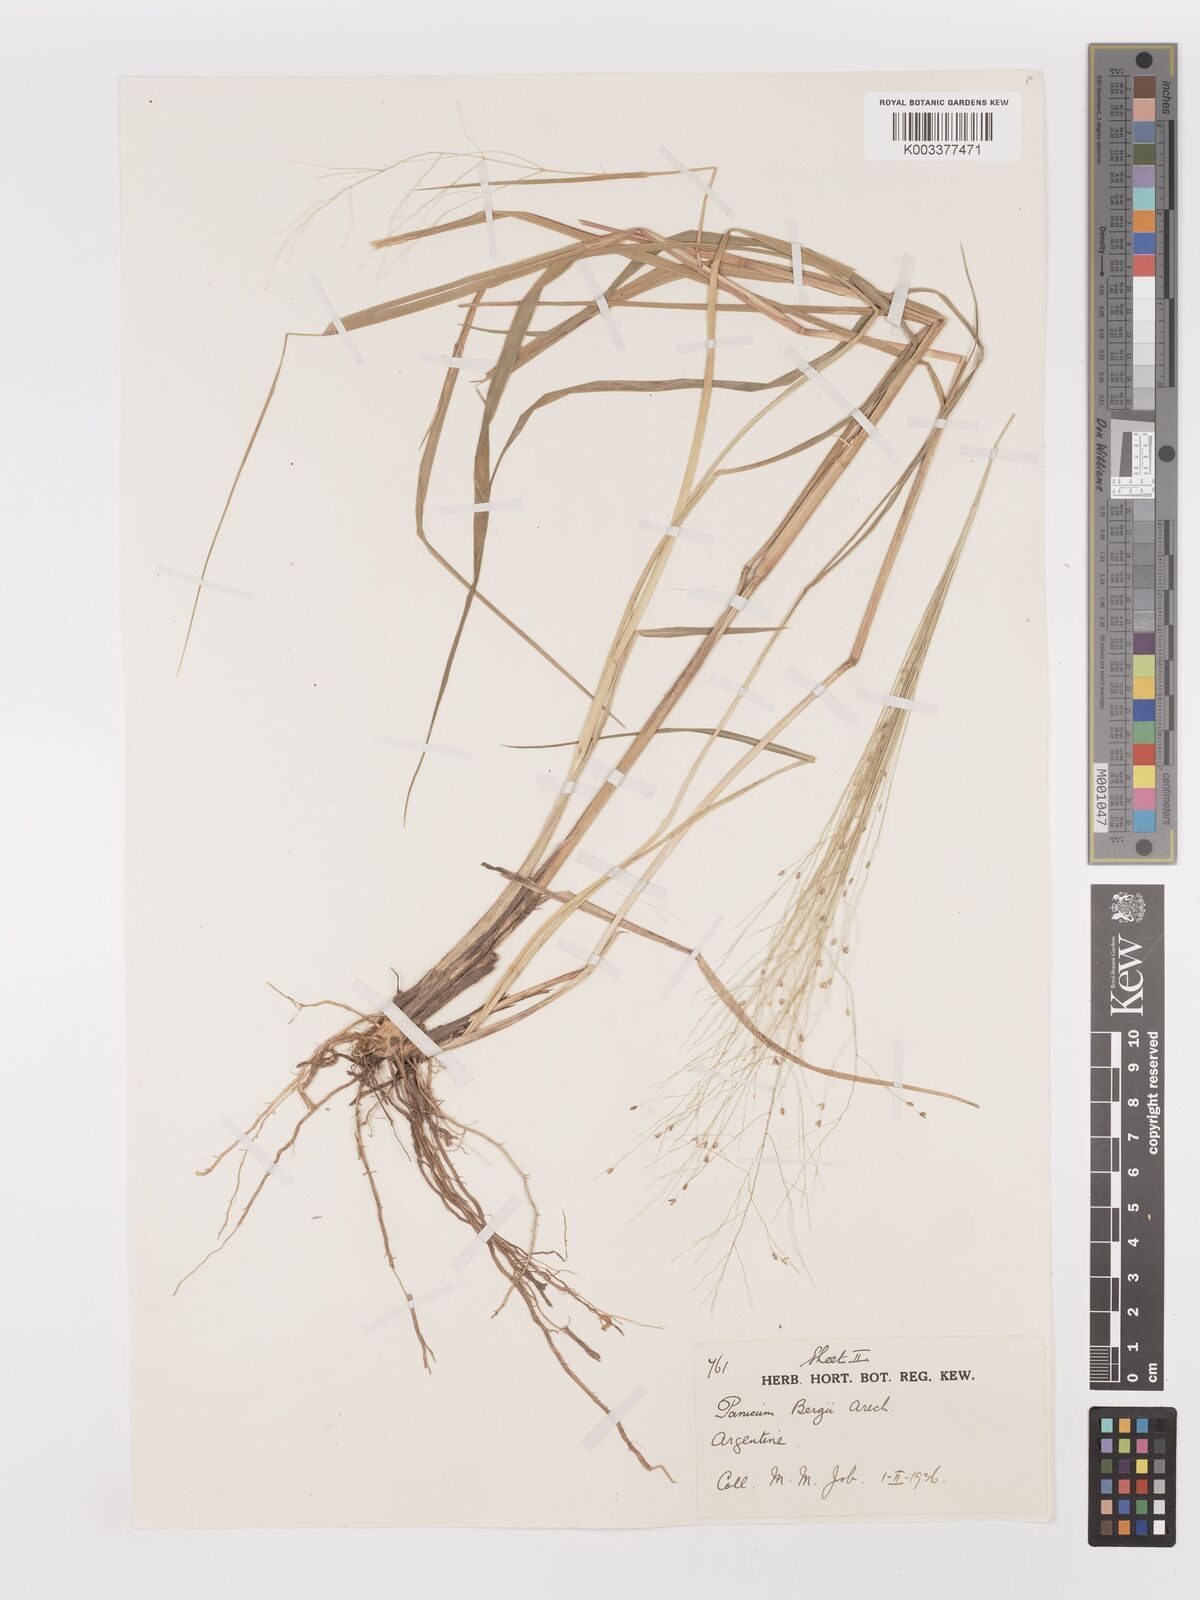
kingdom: Plantae
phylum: Tracheophyta
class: Liliopsida
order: Poales
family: Poaceae
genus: Panicum
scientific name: Panicum bergii
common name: Berg's panicgrass
